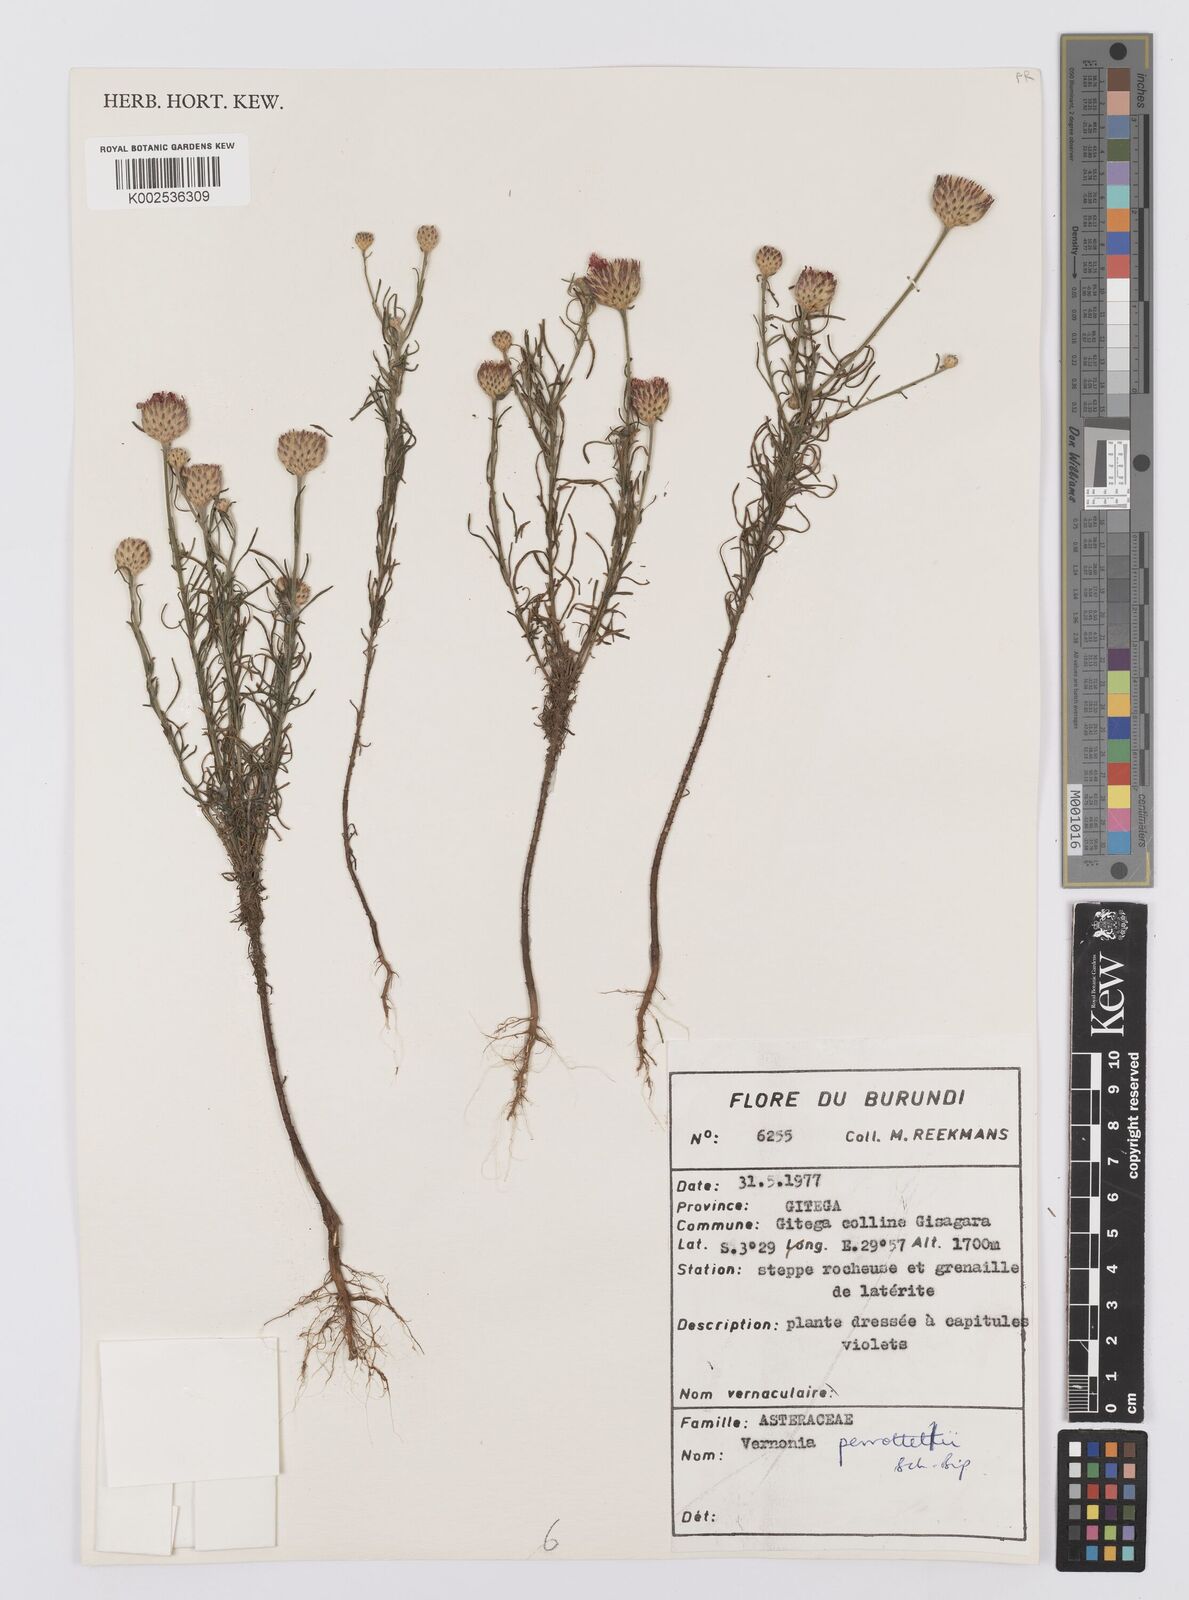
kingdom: Plantae
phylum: Tracheophyta
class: Magnoliopsida
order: Asterales
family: Asteraceae
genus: Crystallopollen
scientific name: Crystallopollen serratuloides
